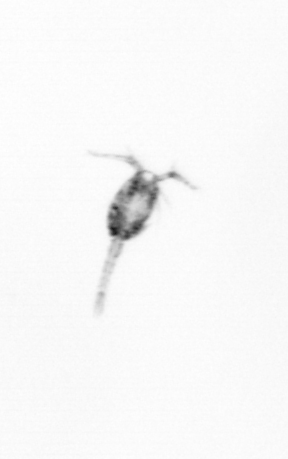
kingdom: Animalia
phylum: Arthropoda
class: Copepoda
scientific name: Copepoda
